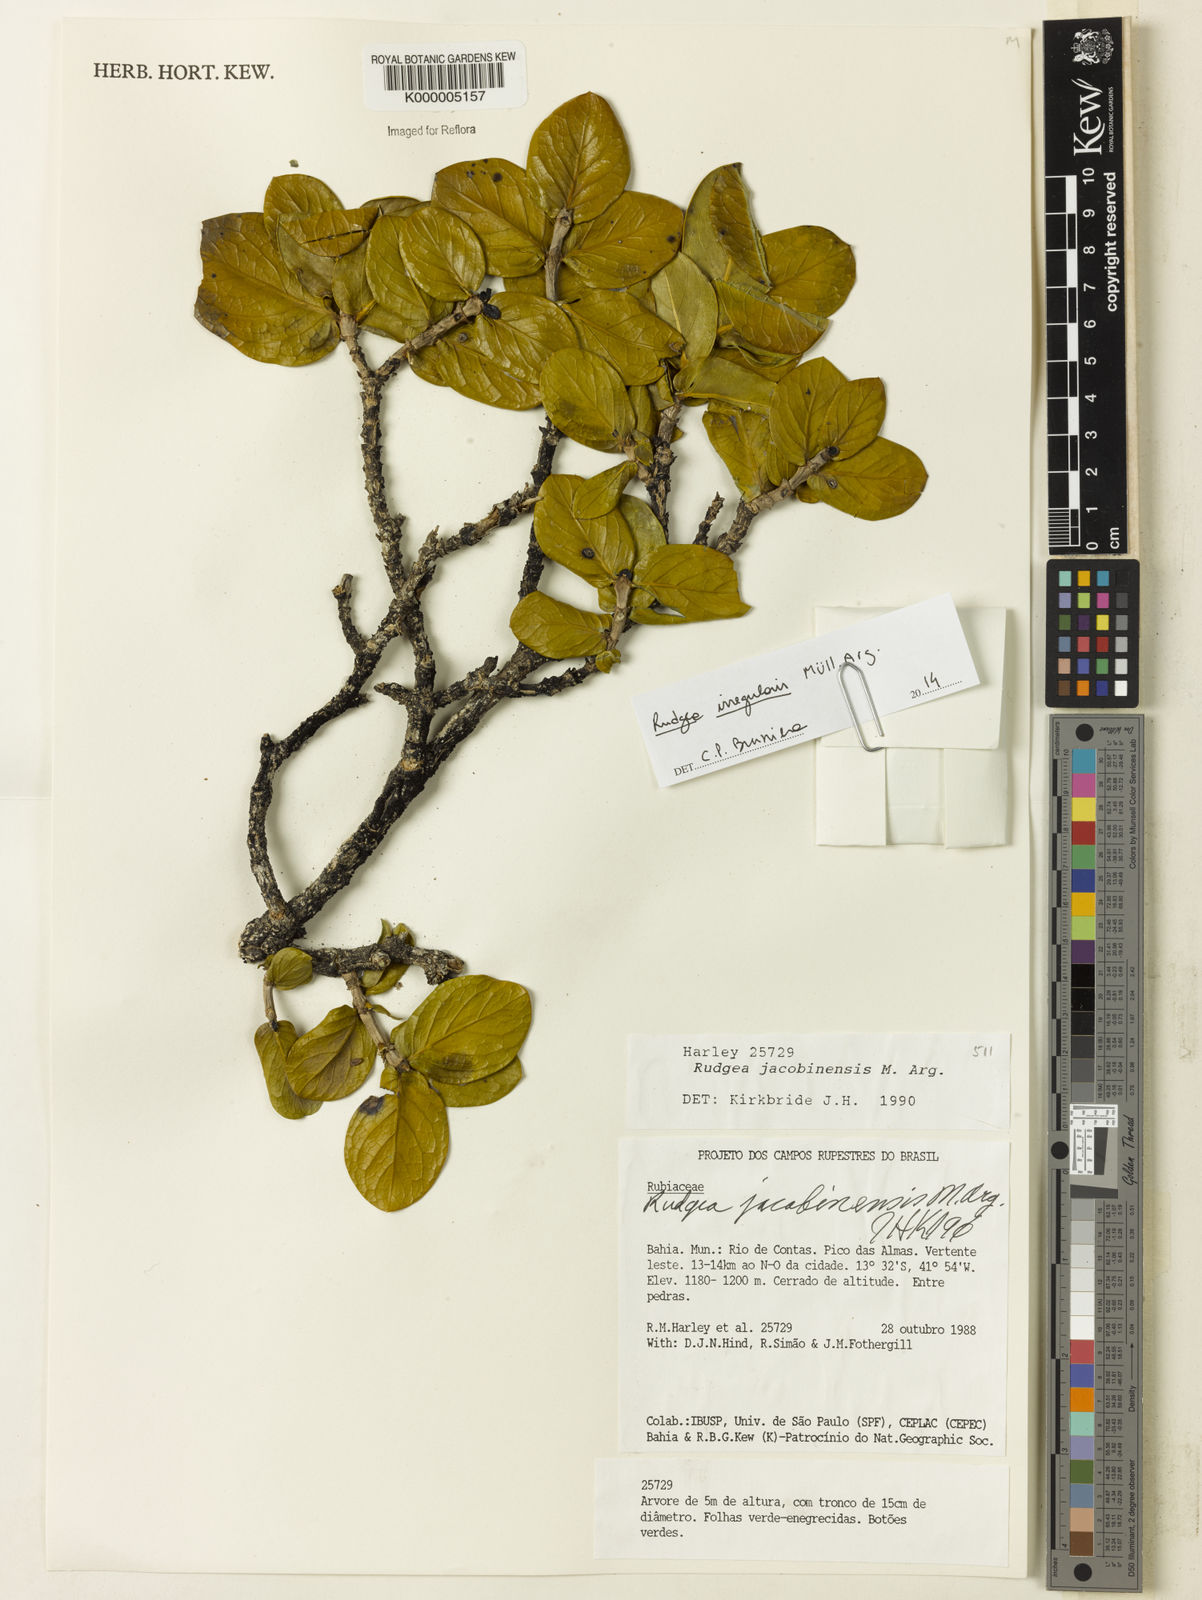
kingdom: Plantae
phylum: Tracheophyta
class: Magnoliopsida
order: Gentianales
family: Rubiaceae
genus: Rudgea
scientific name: Rudgea jasminoides
